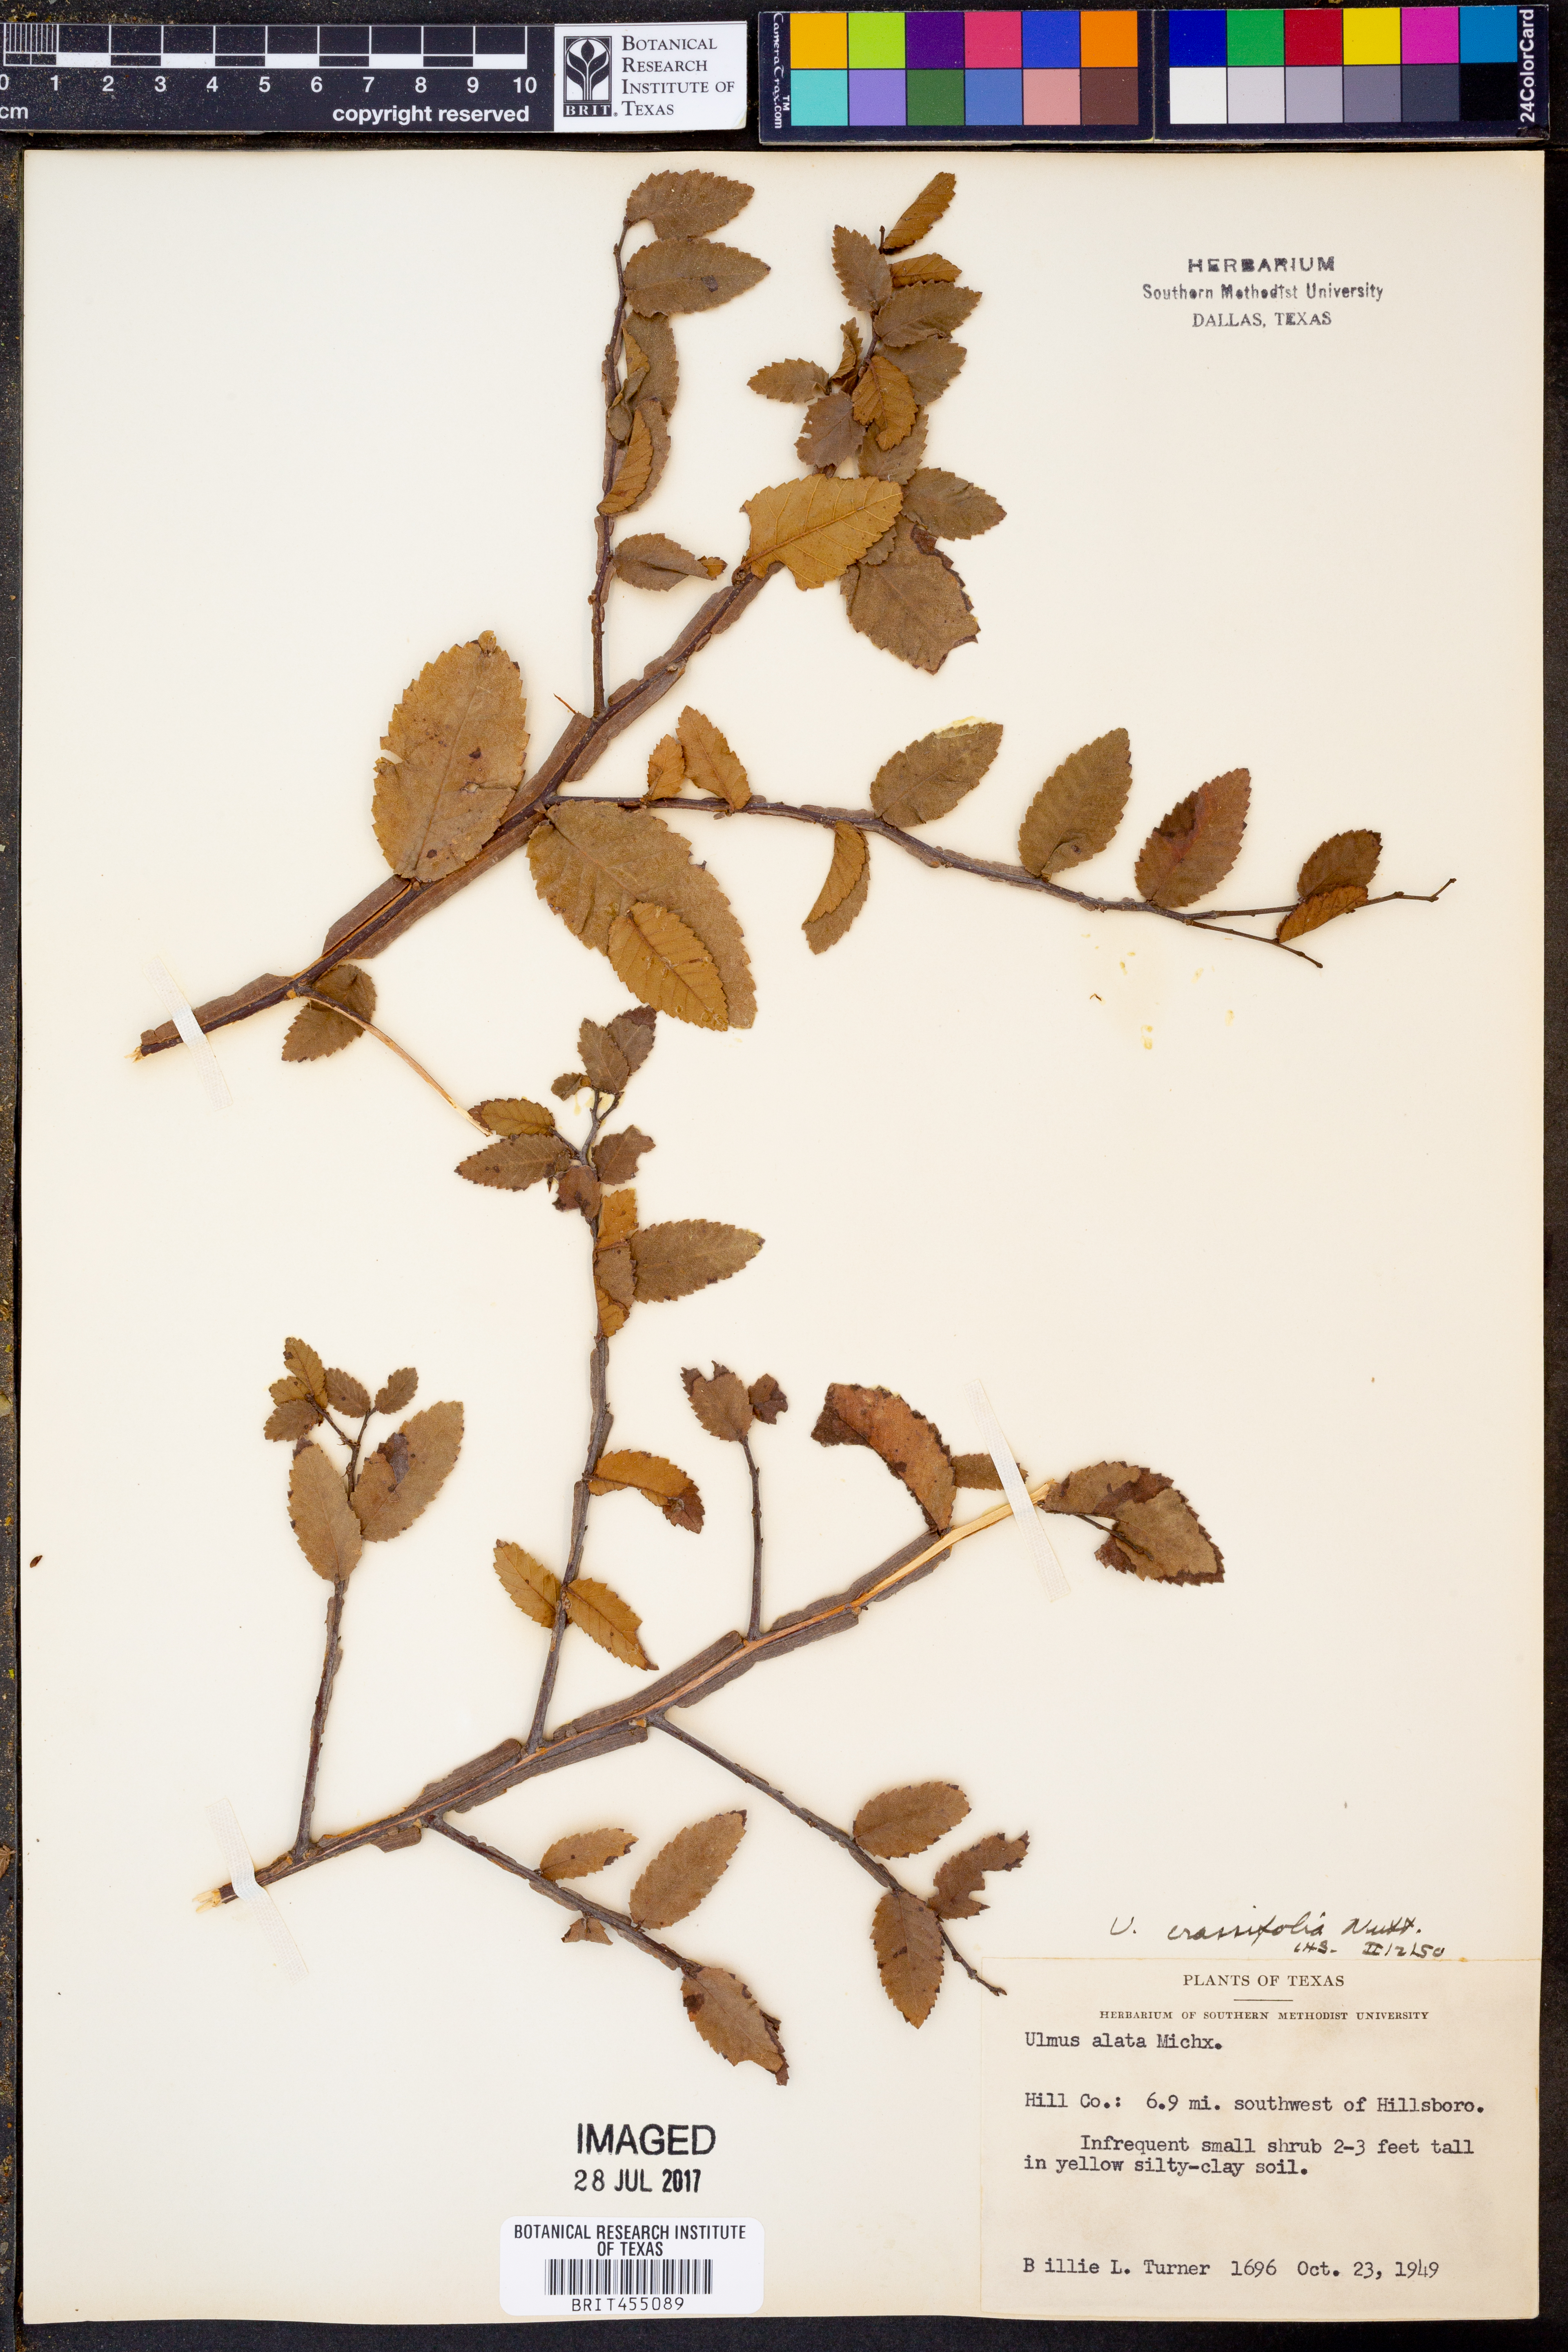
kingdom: Plantae
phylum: Tracheophyta
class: Magnoliopsida
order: Rosales
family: Ulmaceae
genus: Ulmus
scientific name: Ulmus crassifolia
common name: Basket elm
